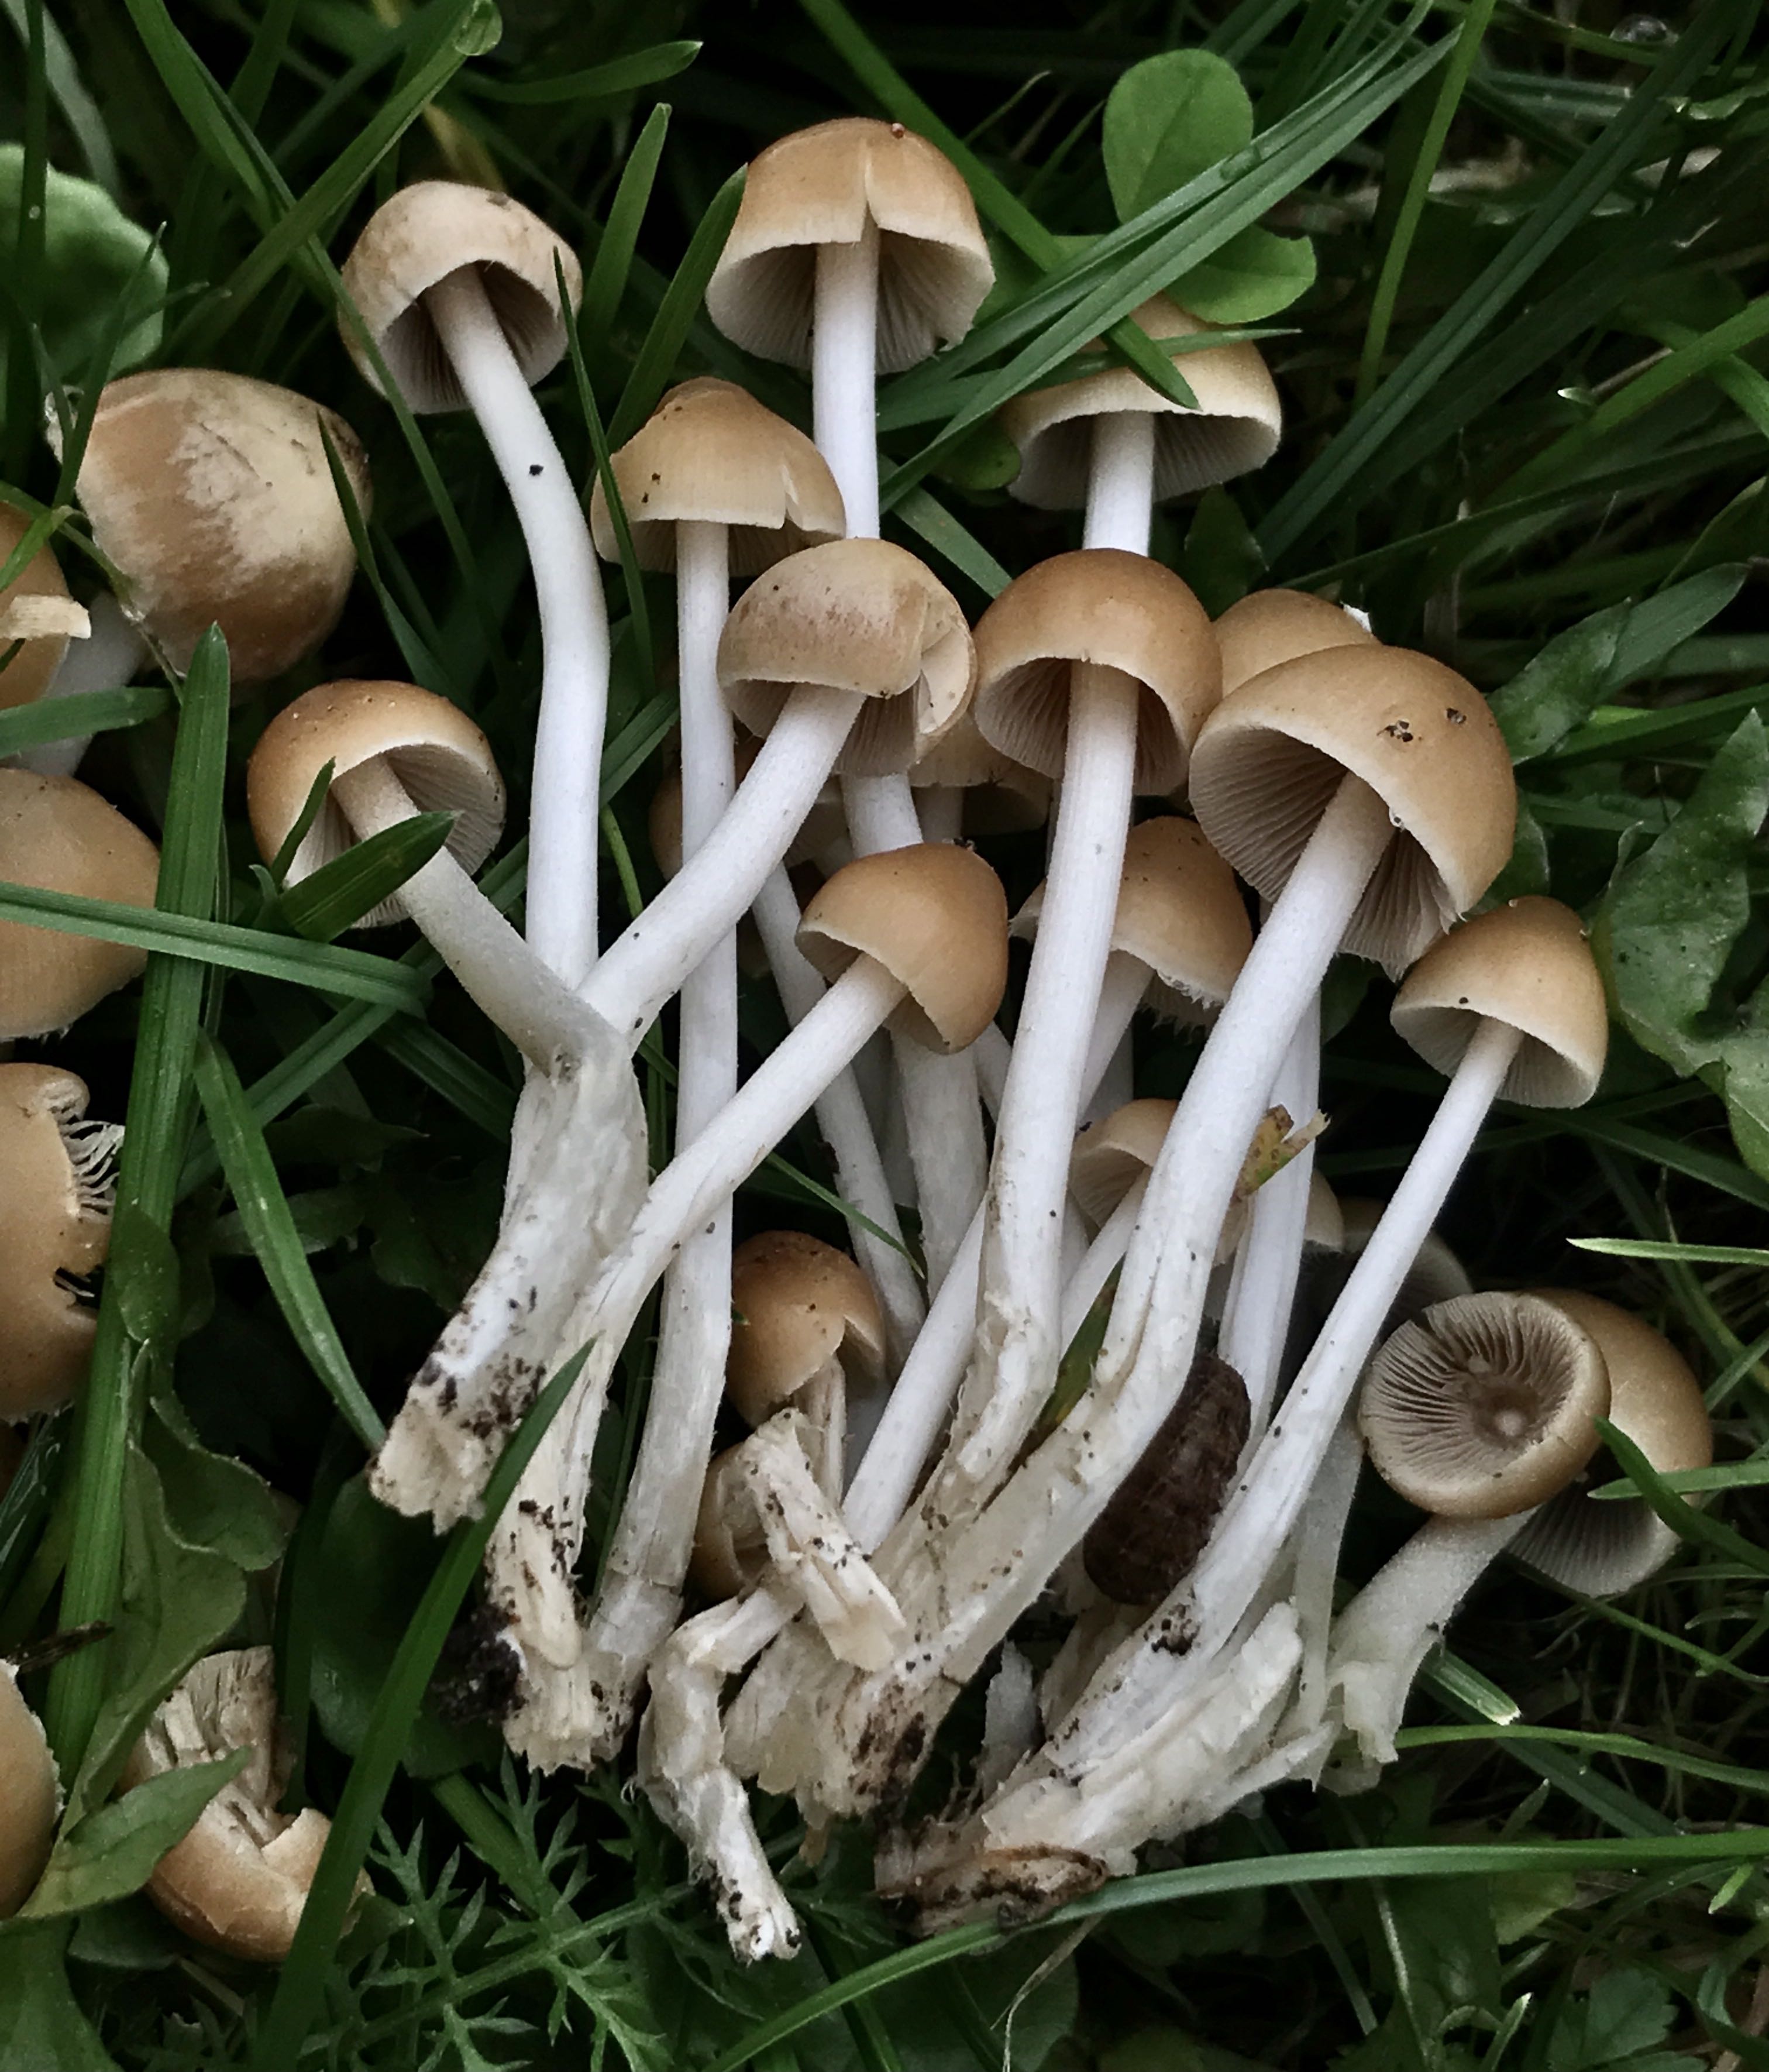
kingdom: Fungi
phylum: Basidiomycota
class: Agaricomycetes
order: Agaricales
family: Psathyrellaceae
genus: Britzelmayria
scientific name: Britzelmayria multipedata
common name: knippe-mørkhat
